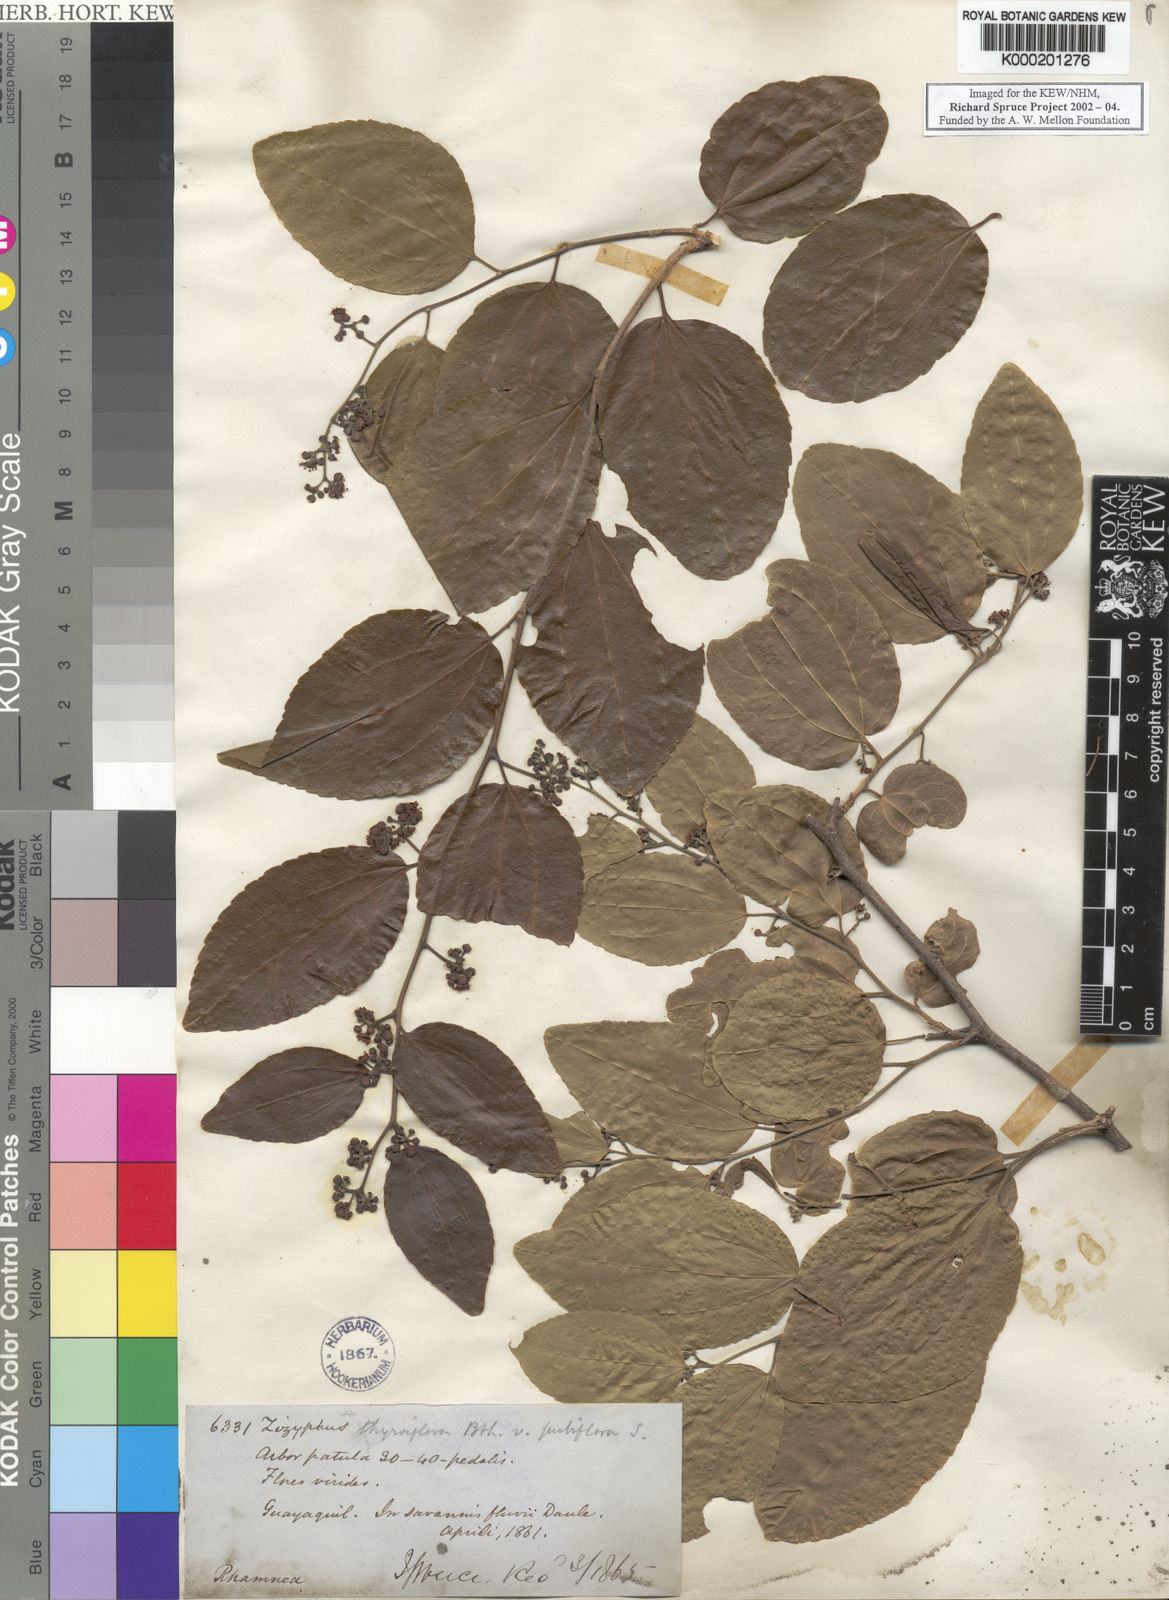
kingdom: Plantae
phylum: Tracheophyta
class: Magnoliopsida
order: Rosales
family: Rhamnaceae
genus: Sarcomphalus
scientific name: Sarcomphalus thyrsiflorus
